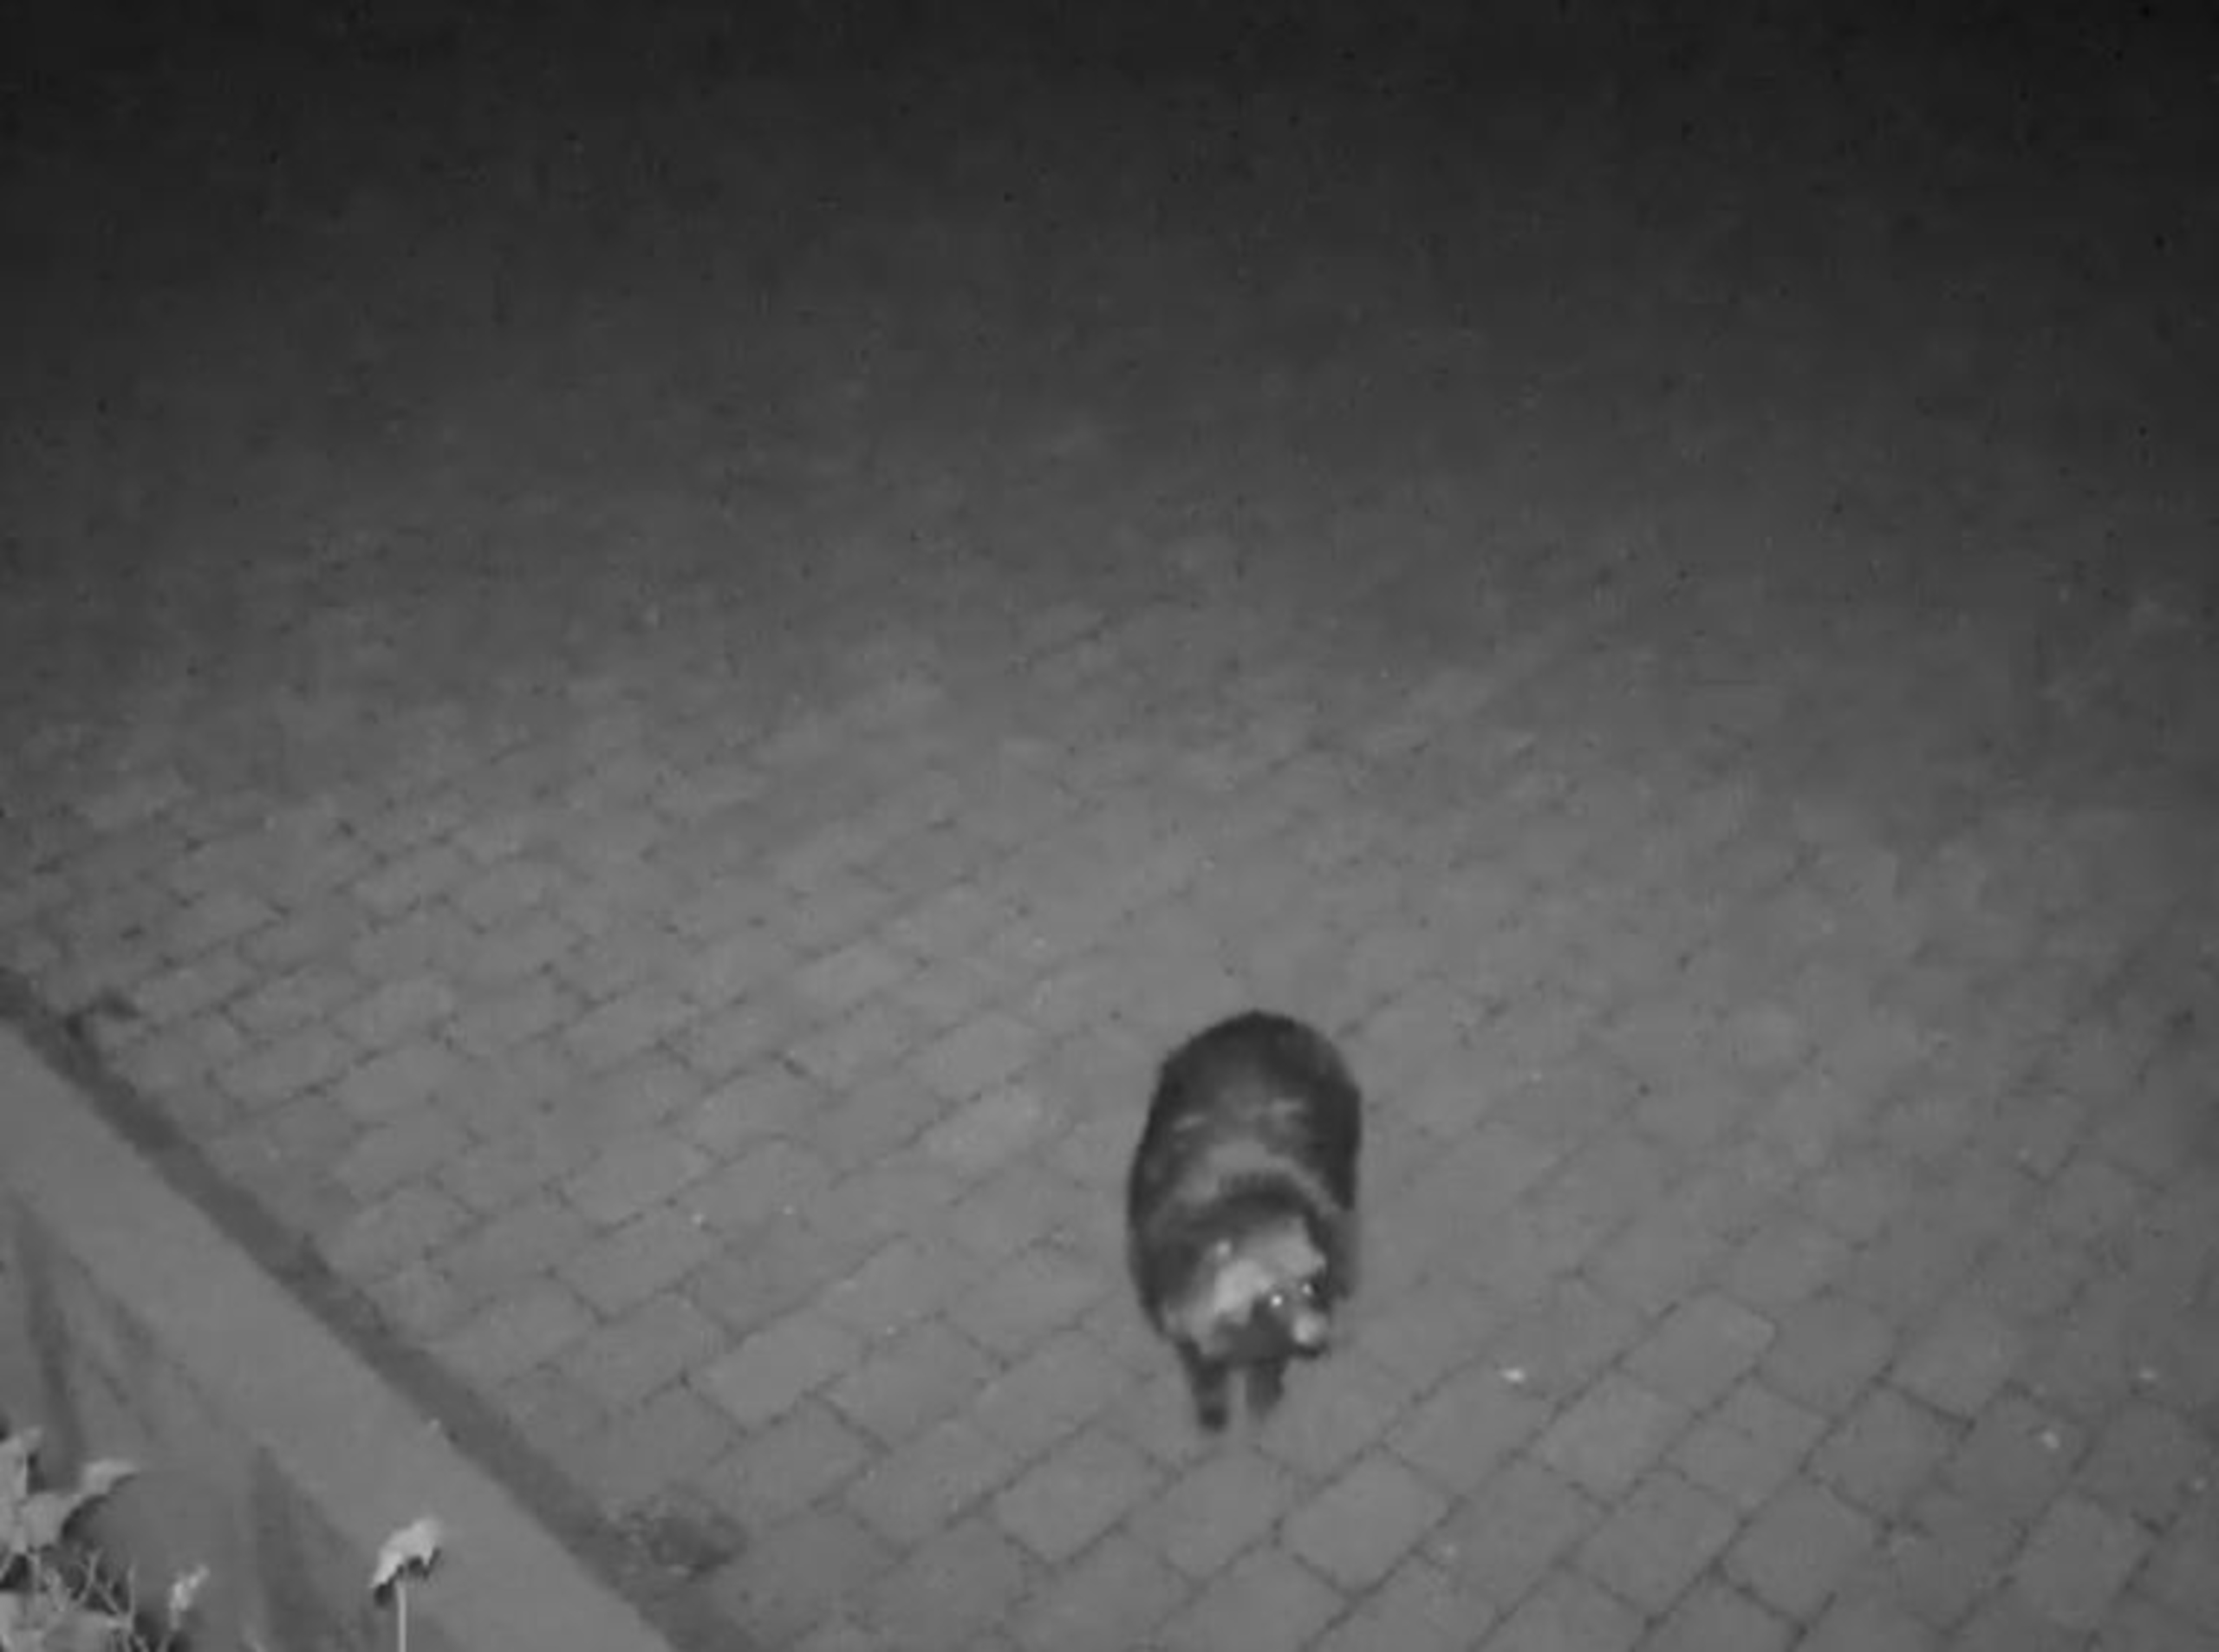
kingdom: Animalia
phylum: Chordata
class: Mammalia
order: Carnivora
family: Canidae
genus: Nyctereutes
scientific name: Nyctereutes procyonoides
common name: Mårhund
